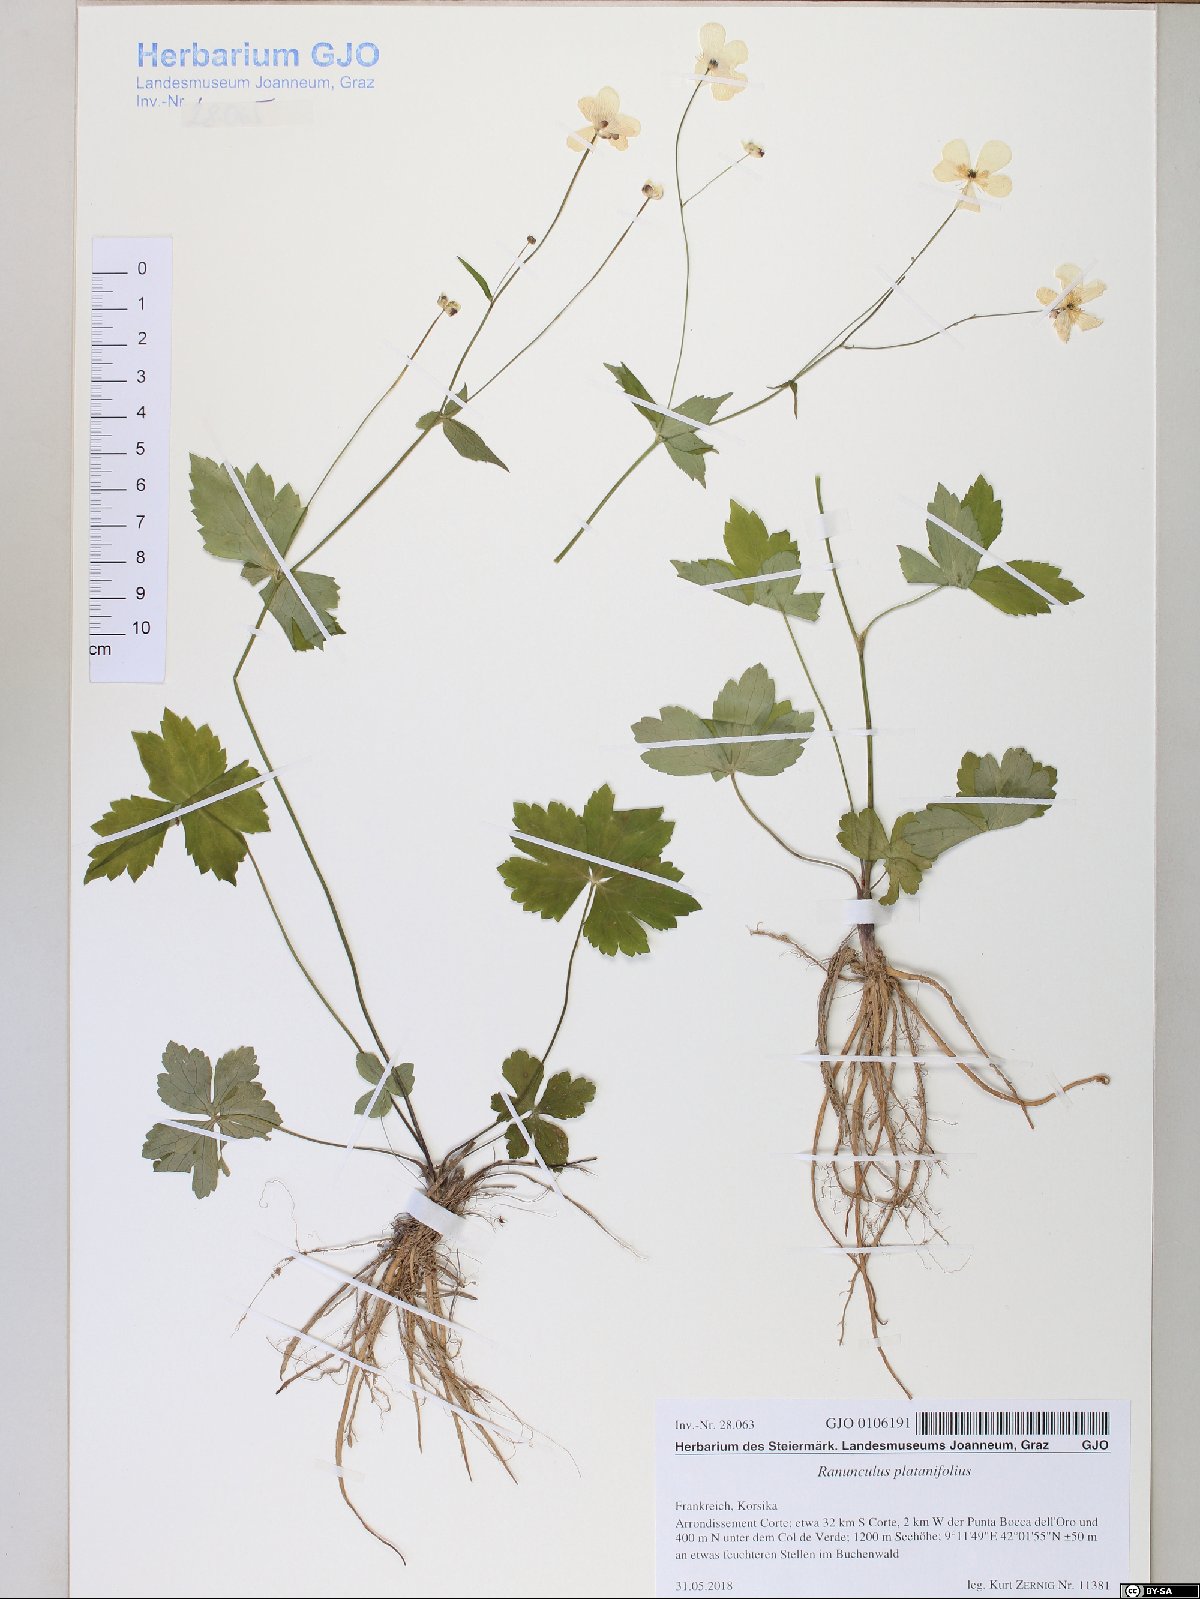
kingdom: Plantae
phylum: Tracheophyta
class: Magnoliopsida
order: Ranunculales
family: Ranunculaceae
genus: Ranunculus
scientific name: Ranunculus platanifolius
